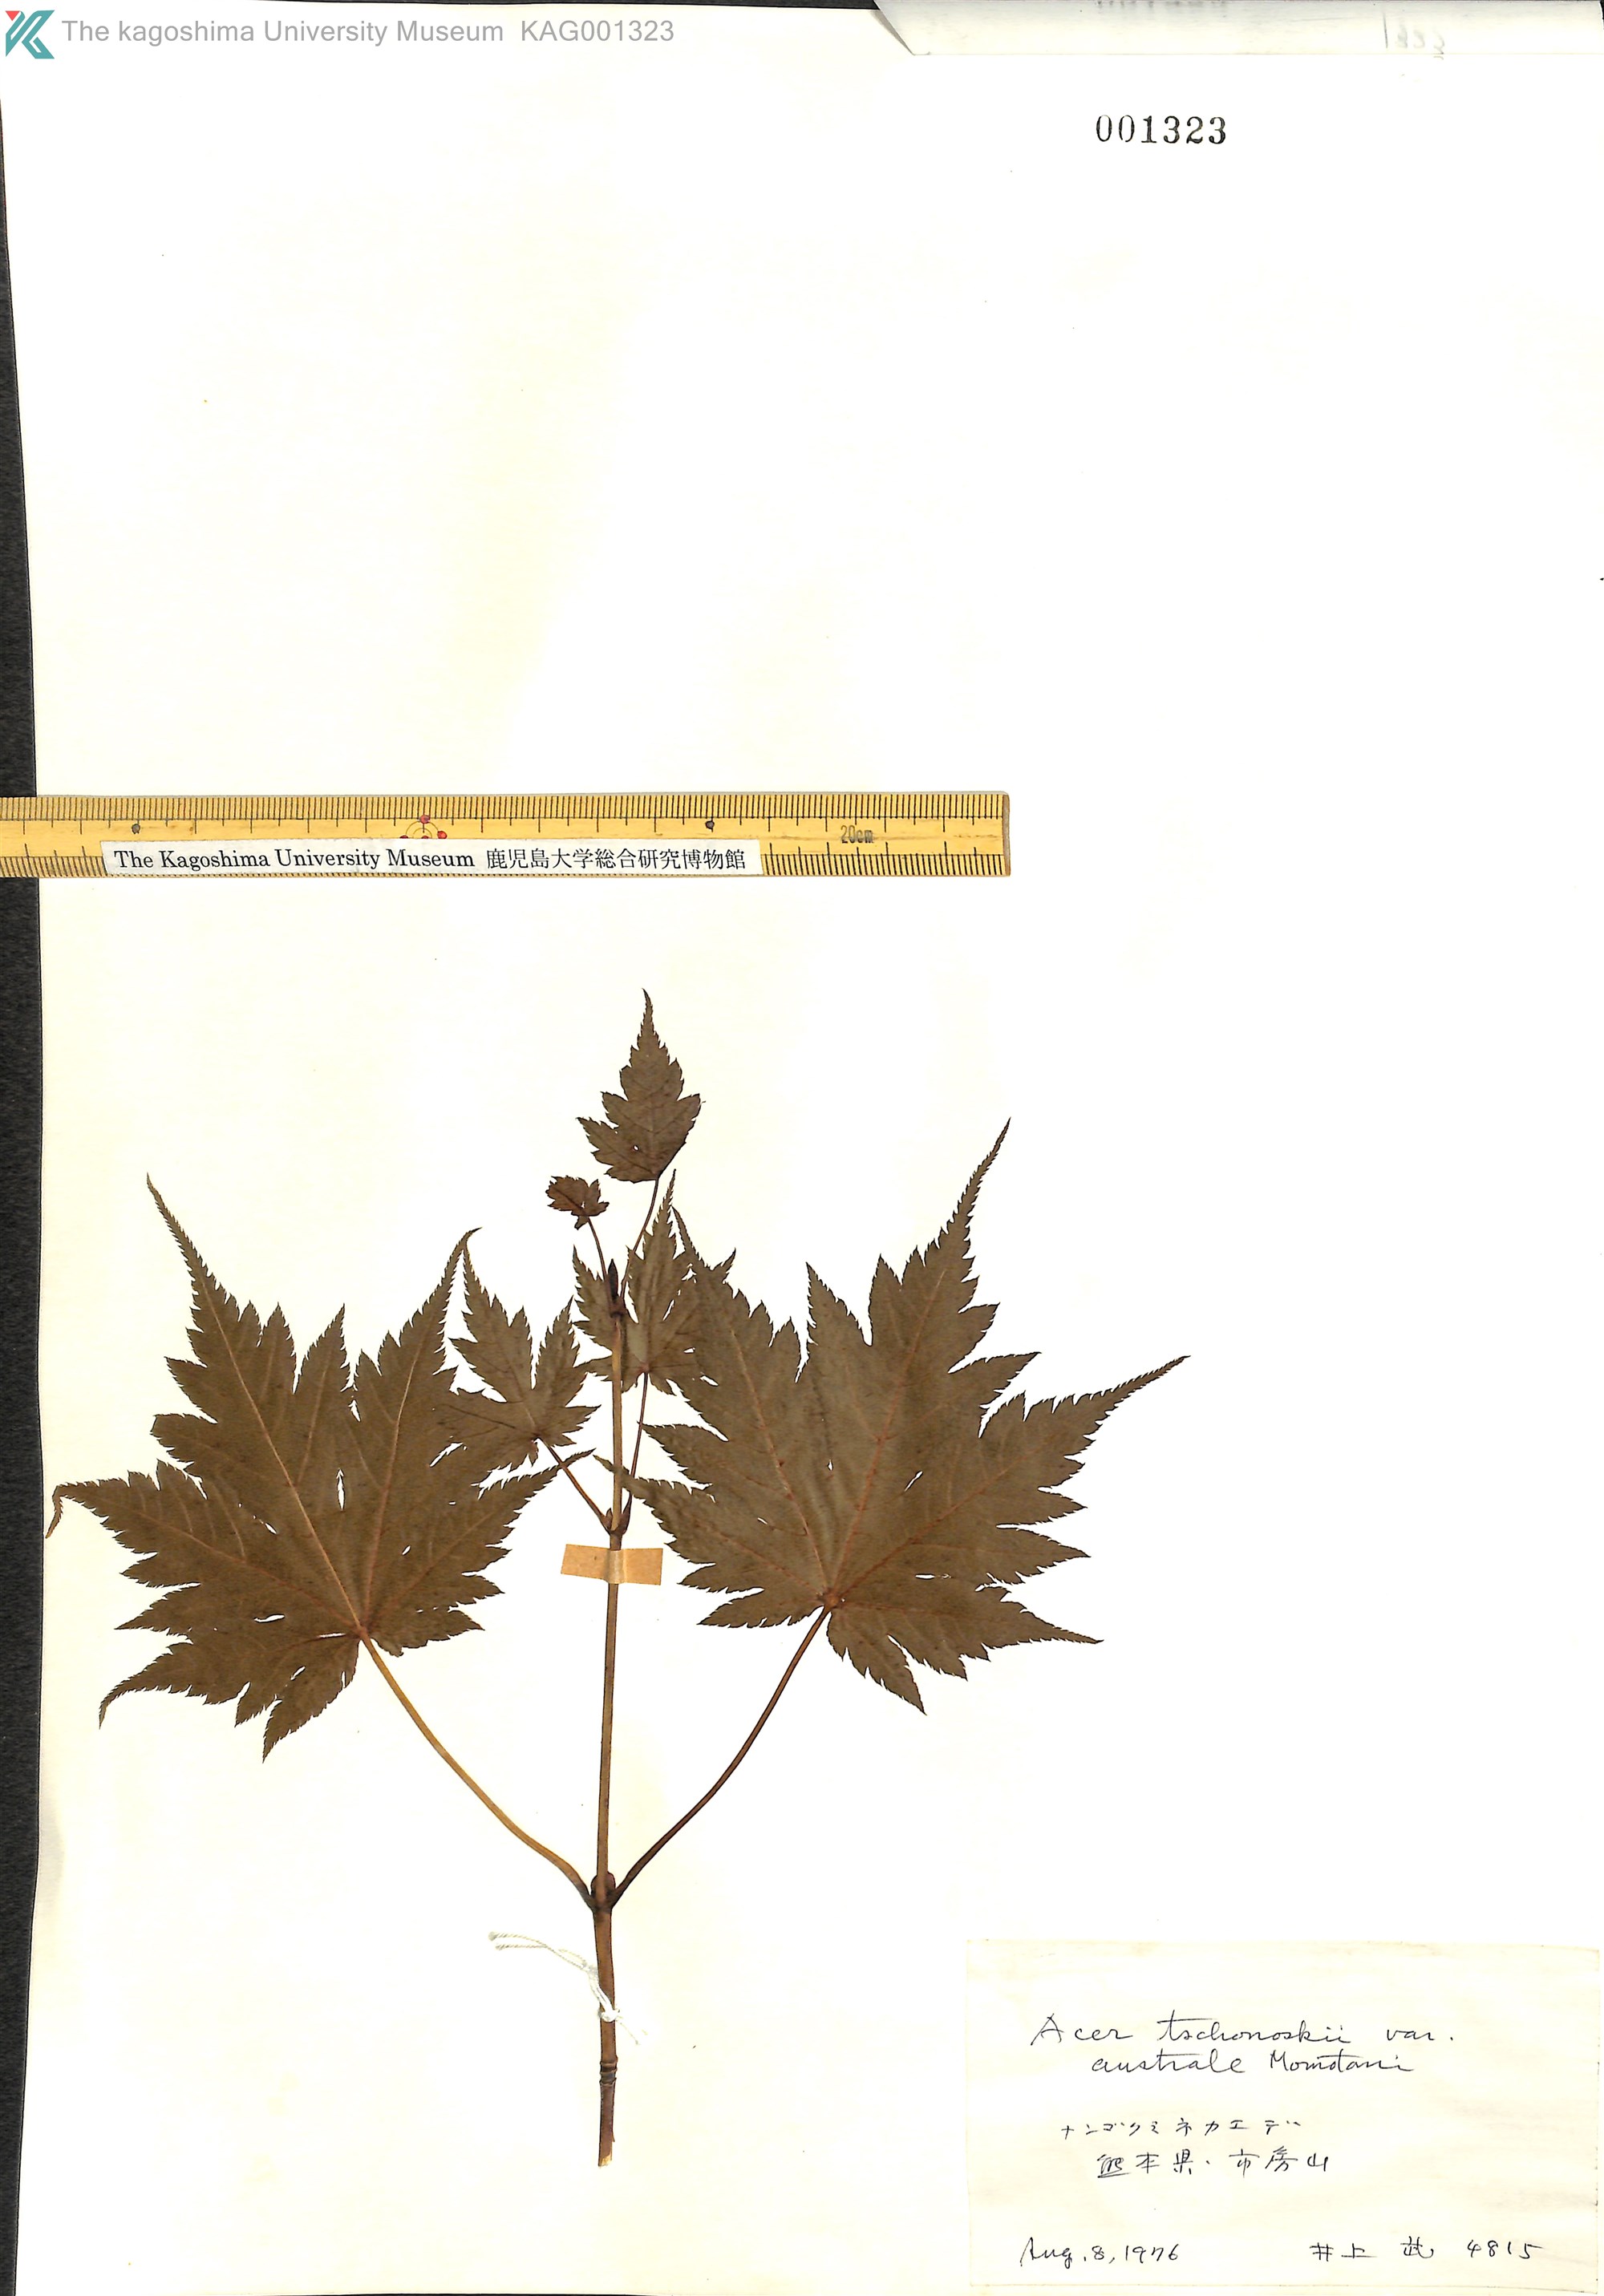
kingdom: Plantae
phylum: Tracheophyta
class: Magnoliopsida
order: Sapindales
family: Sapindaceae
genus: Acer
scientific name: Acer tschonoskii
